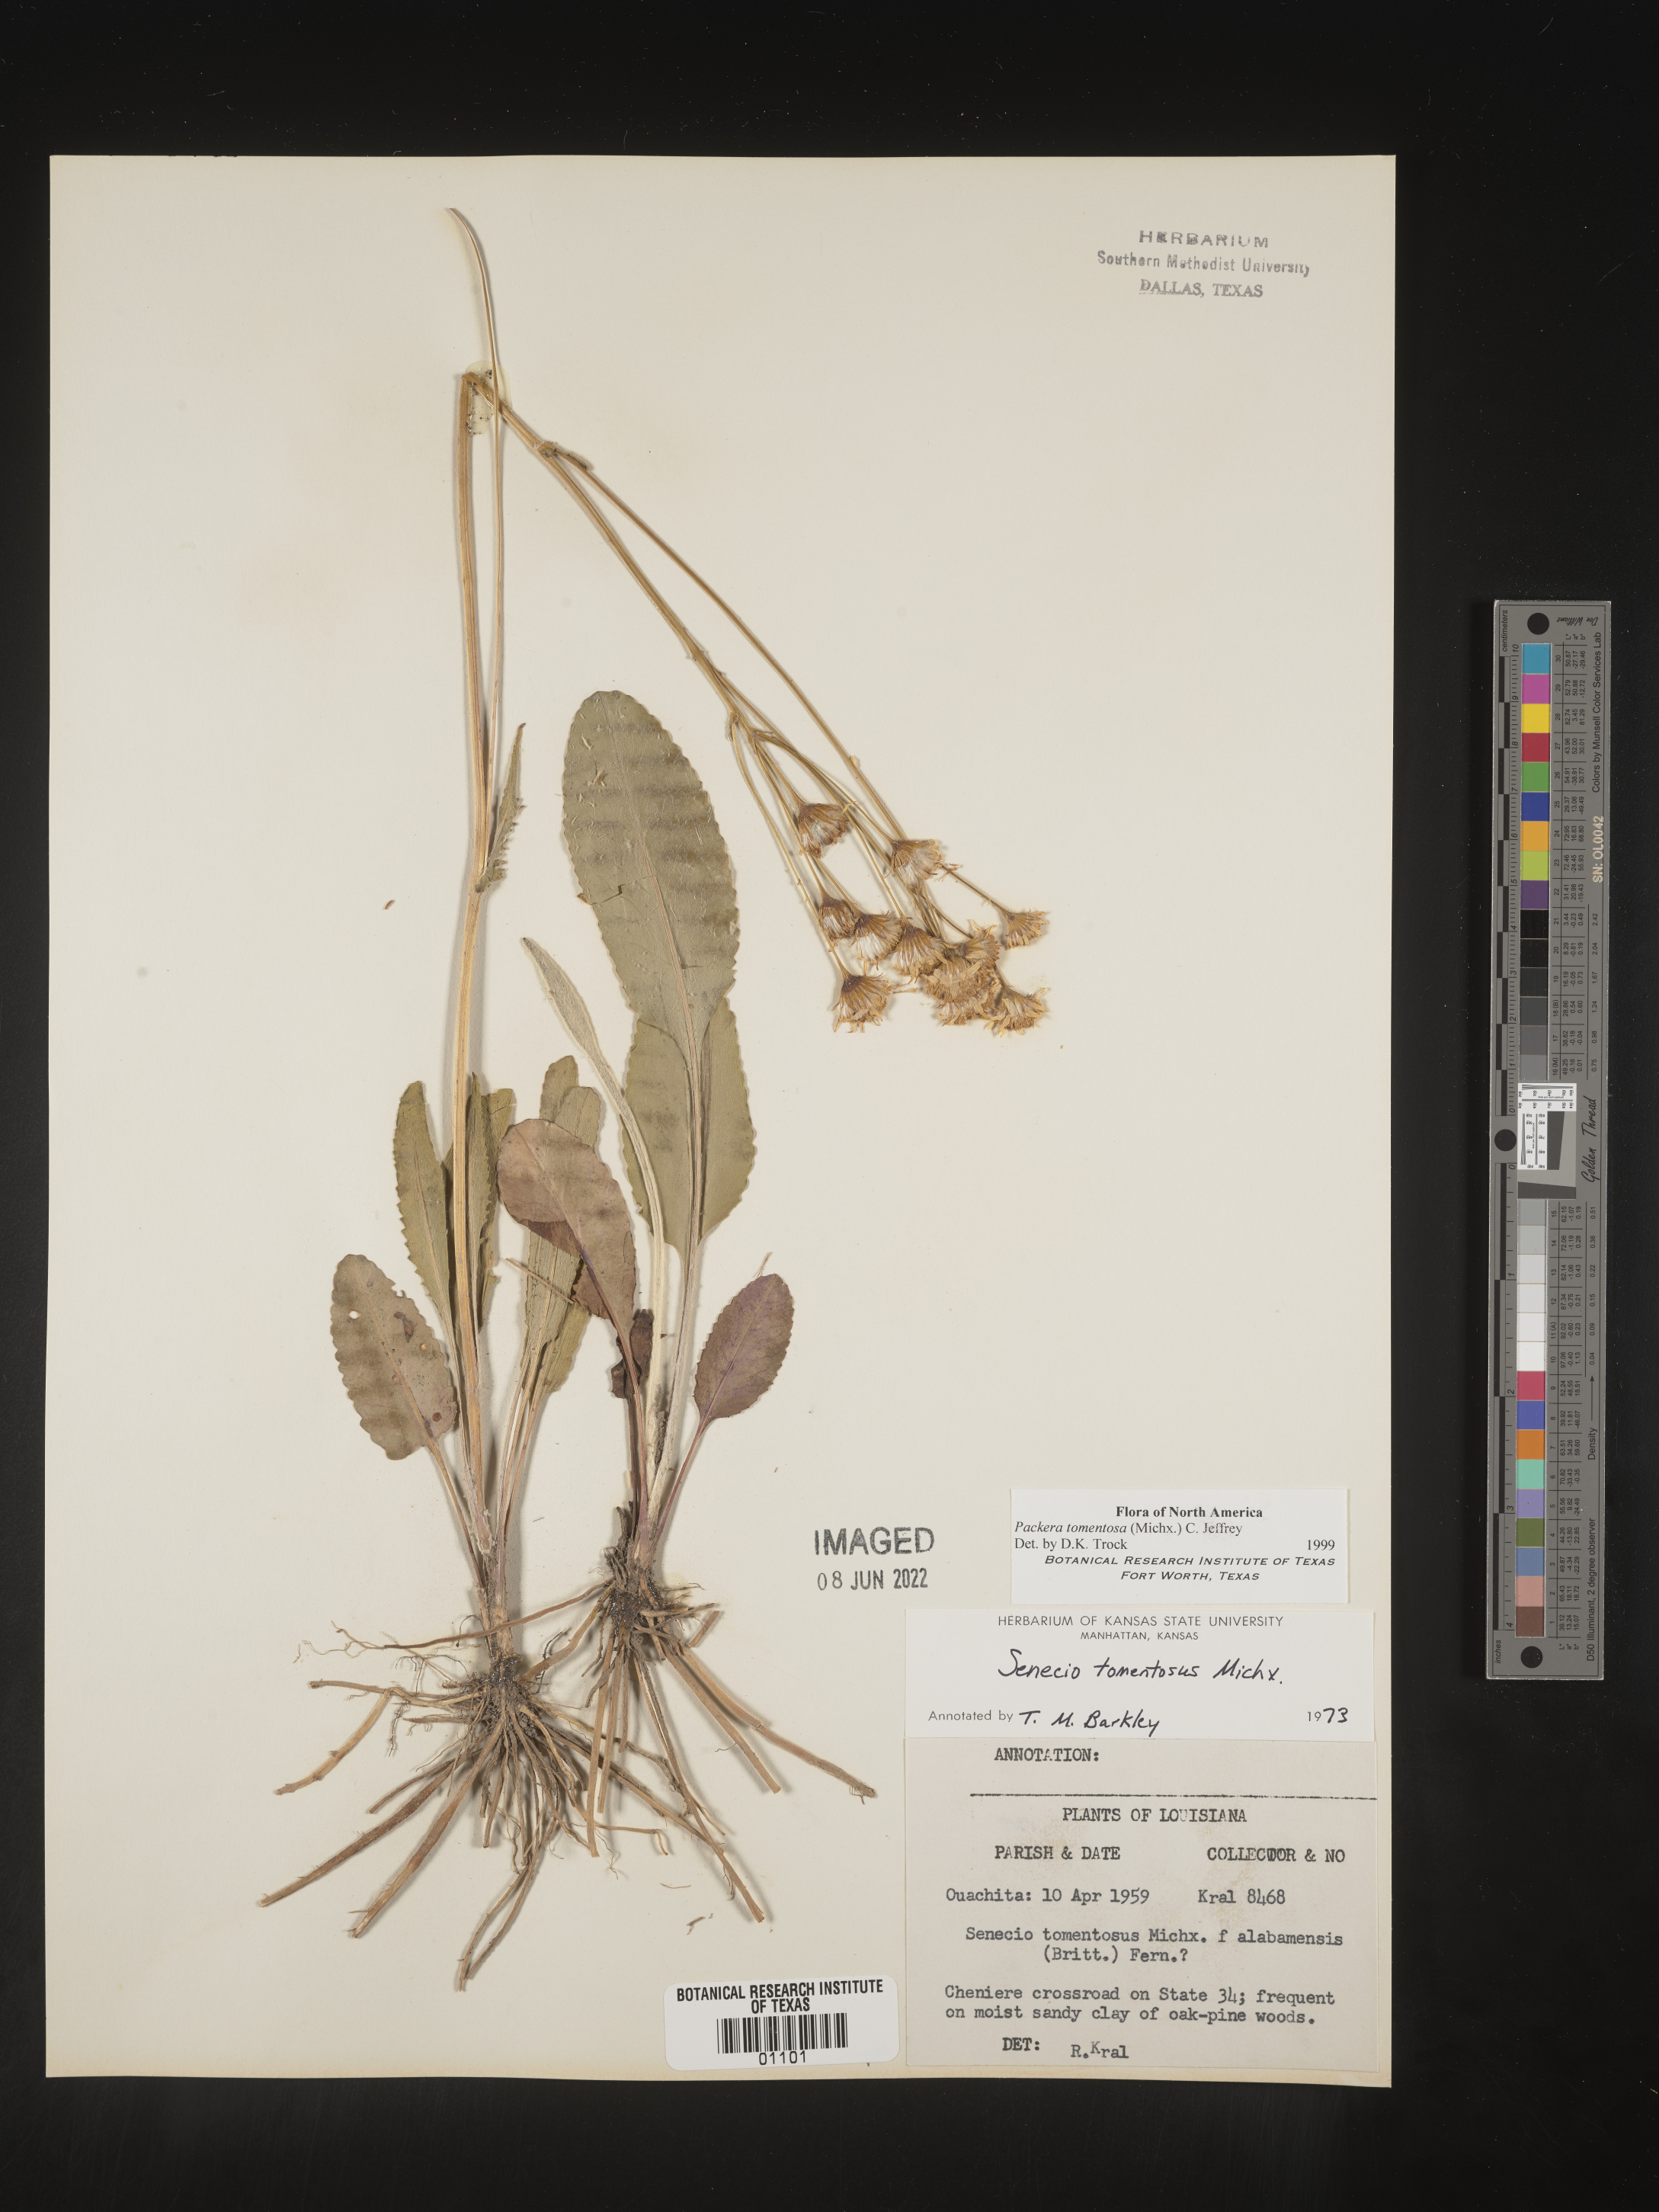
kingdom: Plantae
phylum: Tracheophyta
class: Magnoliopsida
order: Asterales
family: Asteraceae
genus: Packera
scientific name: Packera dubia
